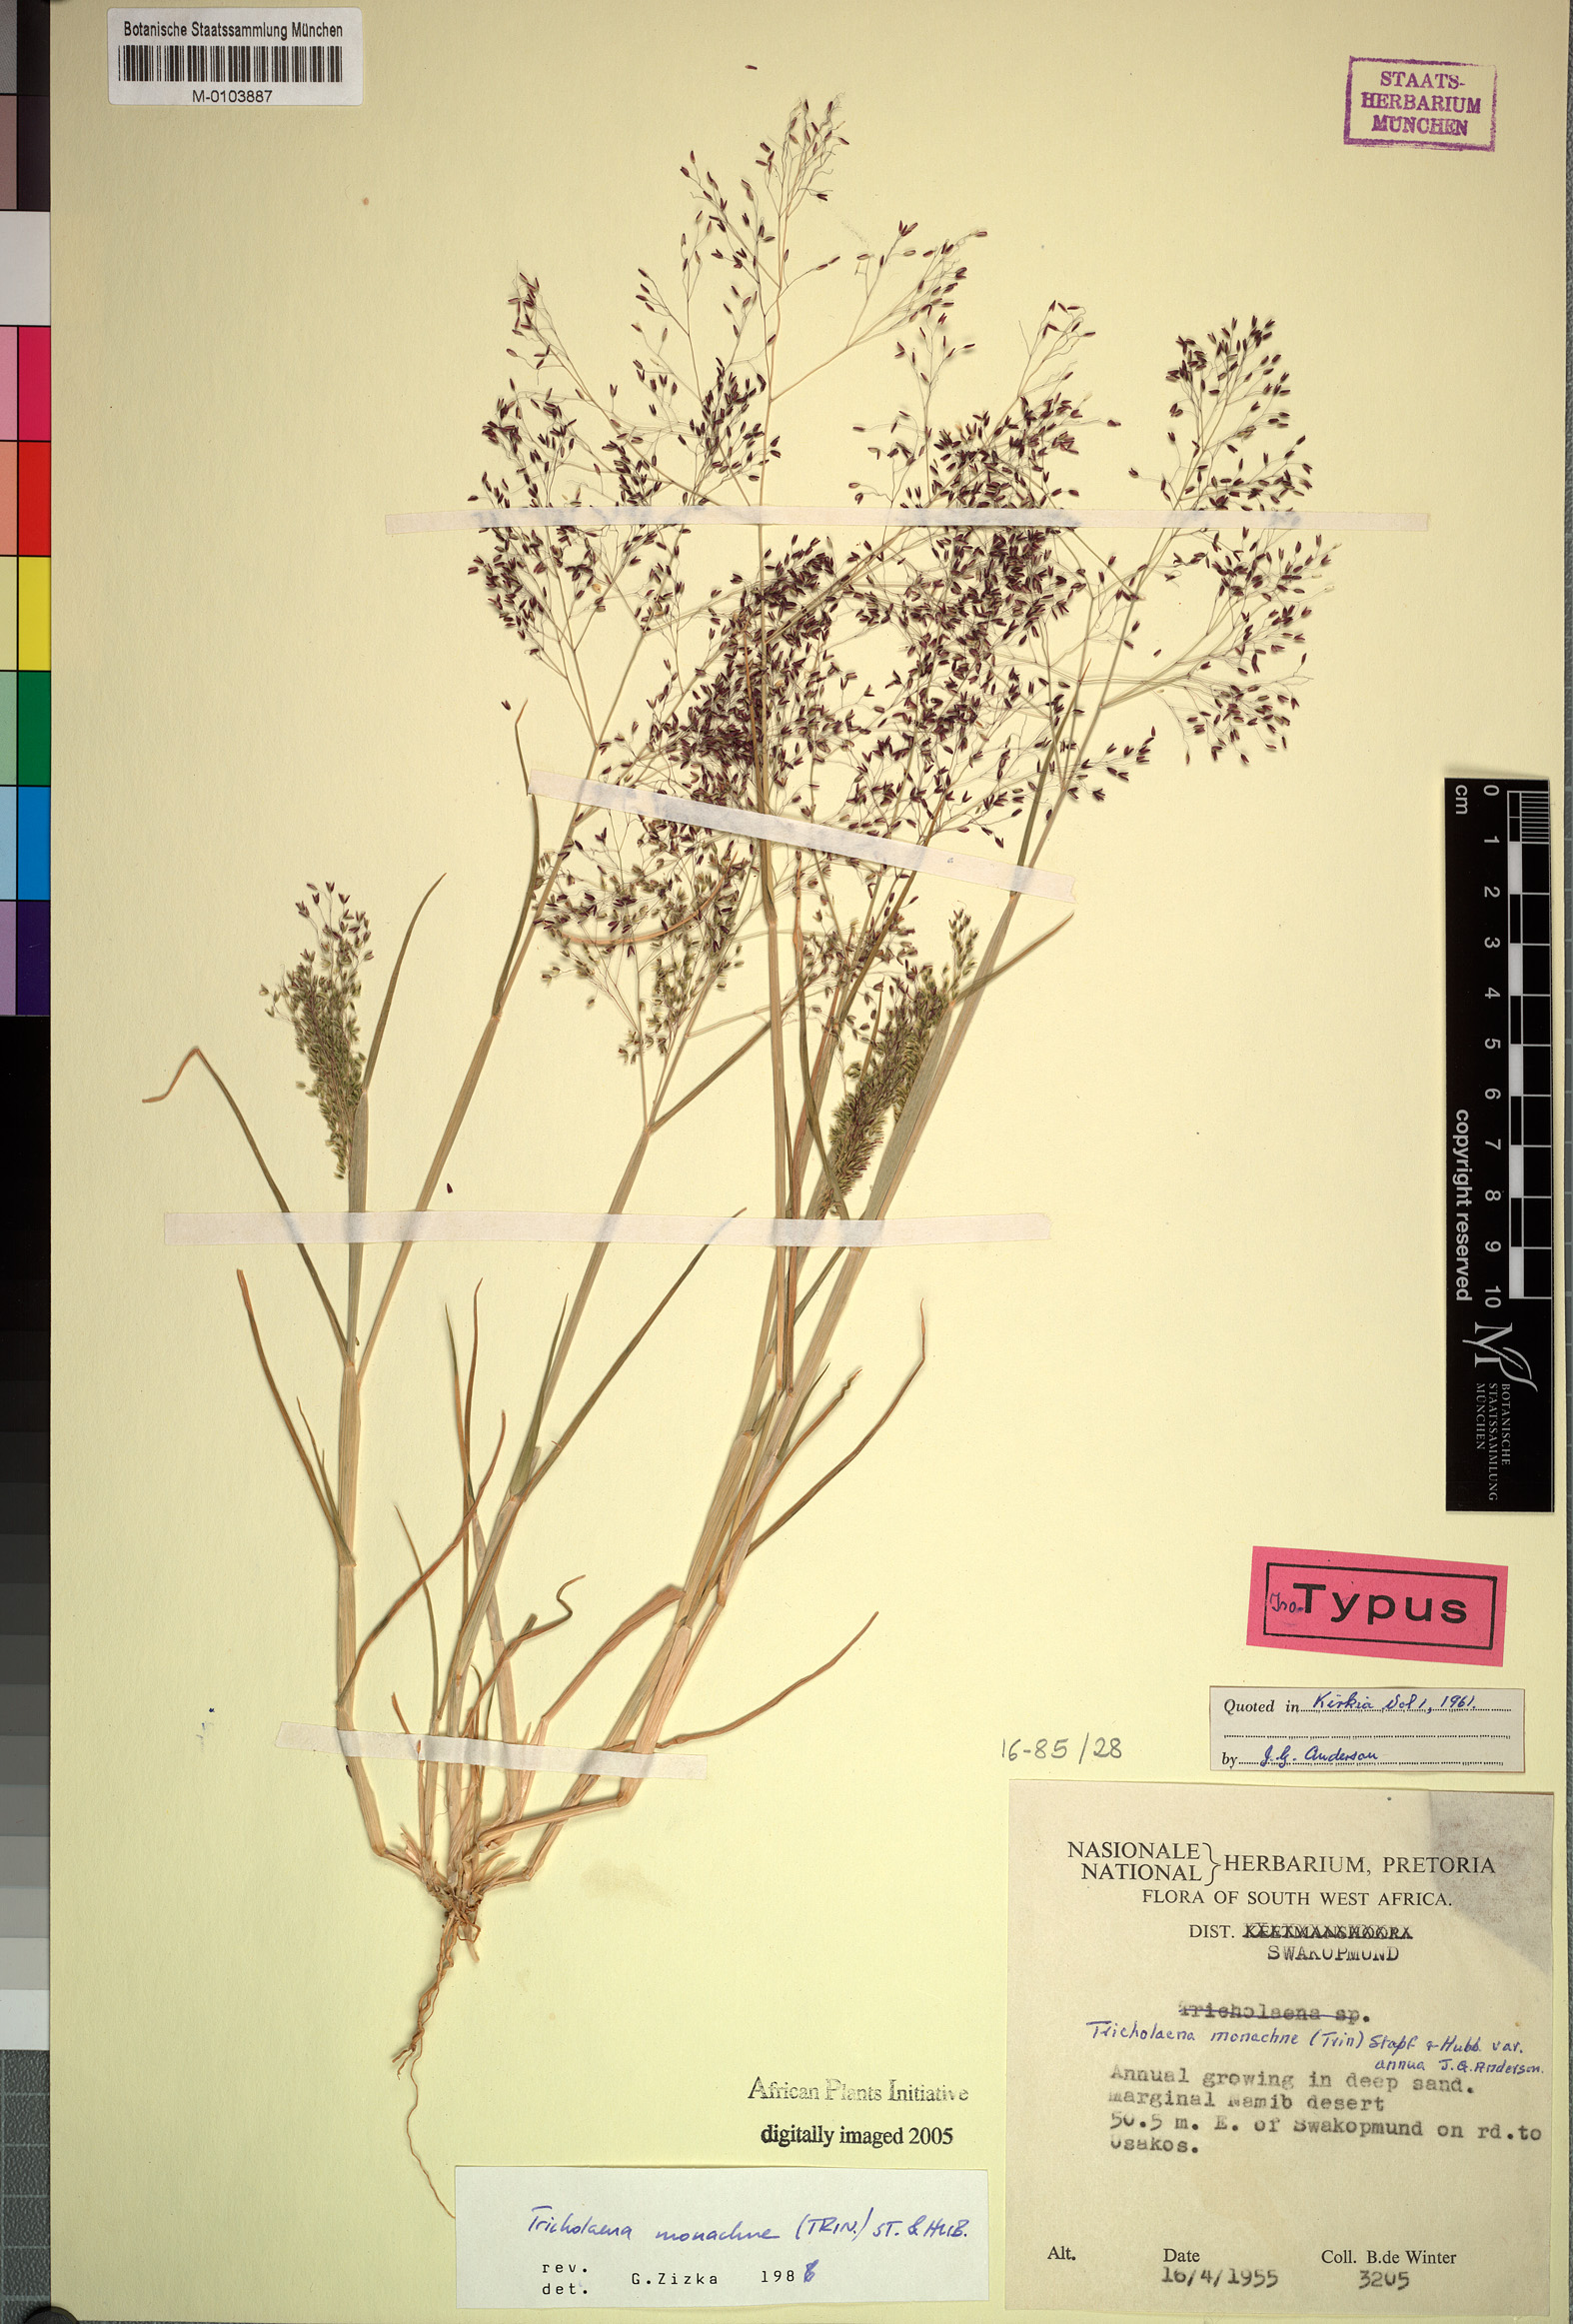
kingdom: Plantae
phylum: Tracheophyta
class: Liliopsida
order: Poales
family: Poaceae
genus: Tricholaena
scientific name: Tricholaena monachne
